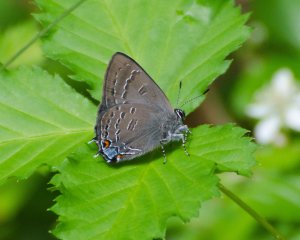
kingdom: Animalia
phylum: Arthropoda
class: Insecta
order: Lepidoptera
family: Lycaenidae
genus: Satyrium
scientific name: Satyrium calanus
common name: Banded Hairstreak
